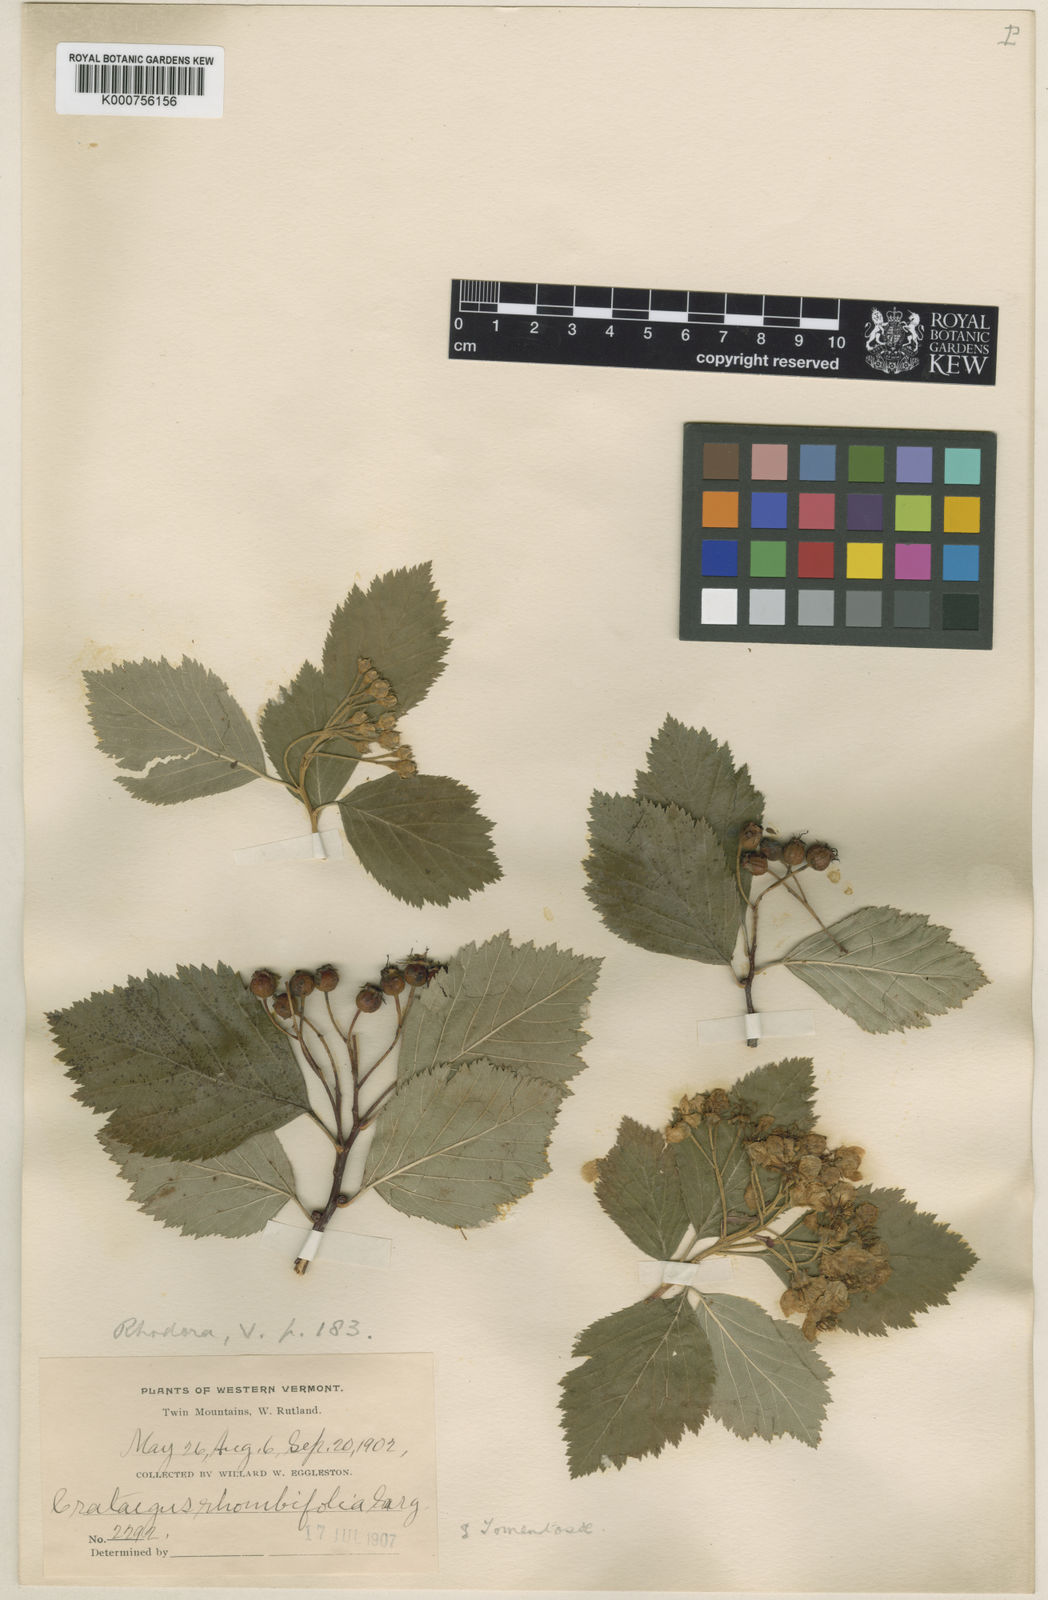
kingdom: Plantae
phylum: Tracheophyta
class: Magnoliopsida
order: Rosales
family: Rosaceae
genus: Crataegus
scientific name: Crataegus succulenta
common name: Fleshy hawthorn
